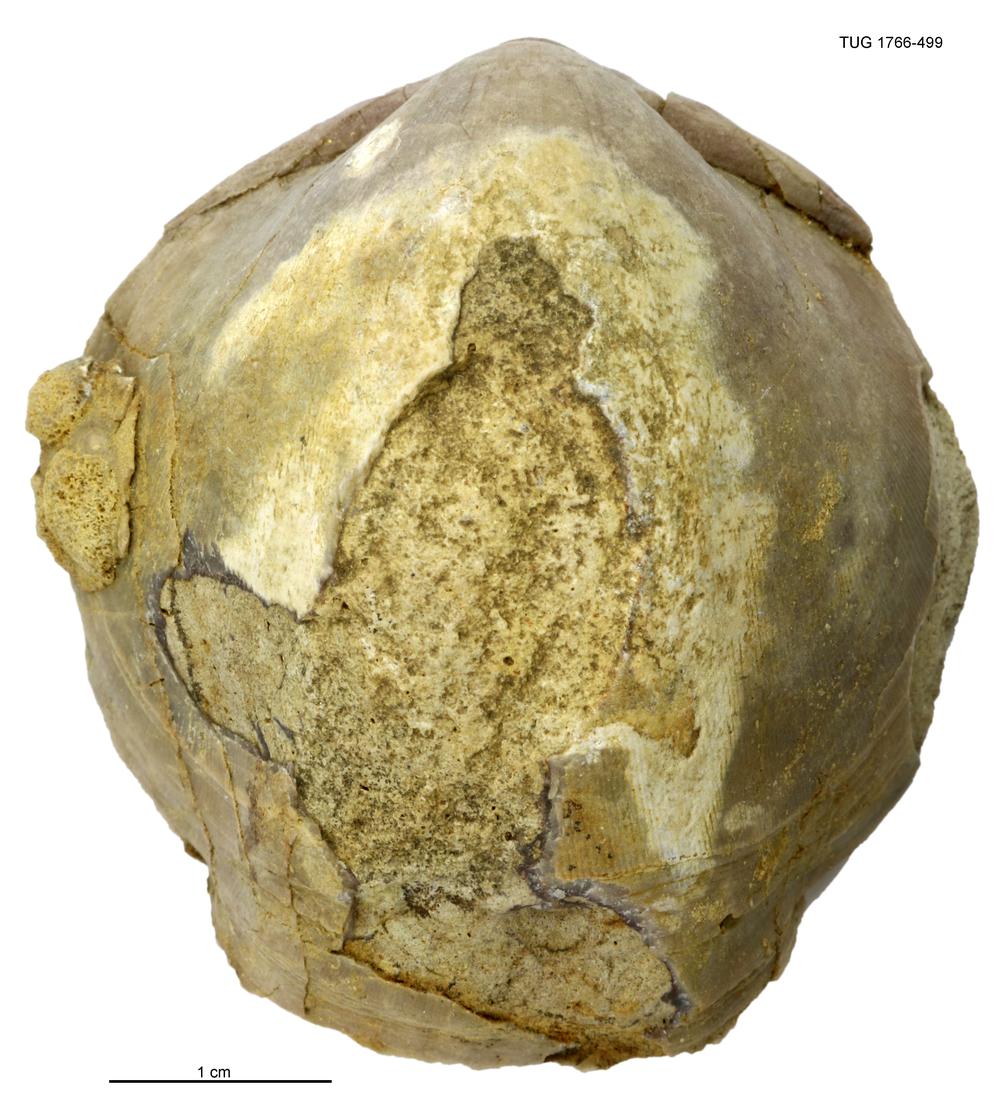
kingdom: Animalia
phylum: Brachiopoda
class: Rhynchonellata
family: Porambonitidae
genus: Porambonites
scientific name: Porambonites
